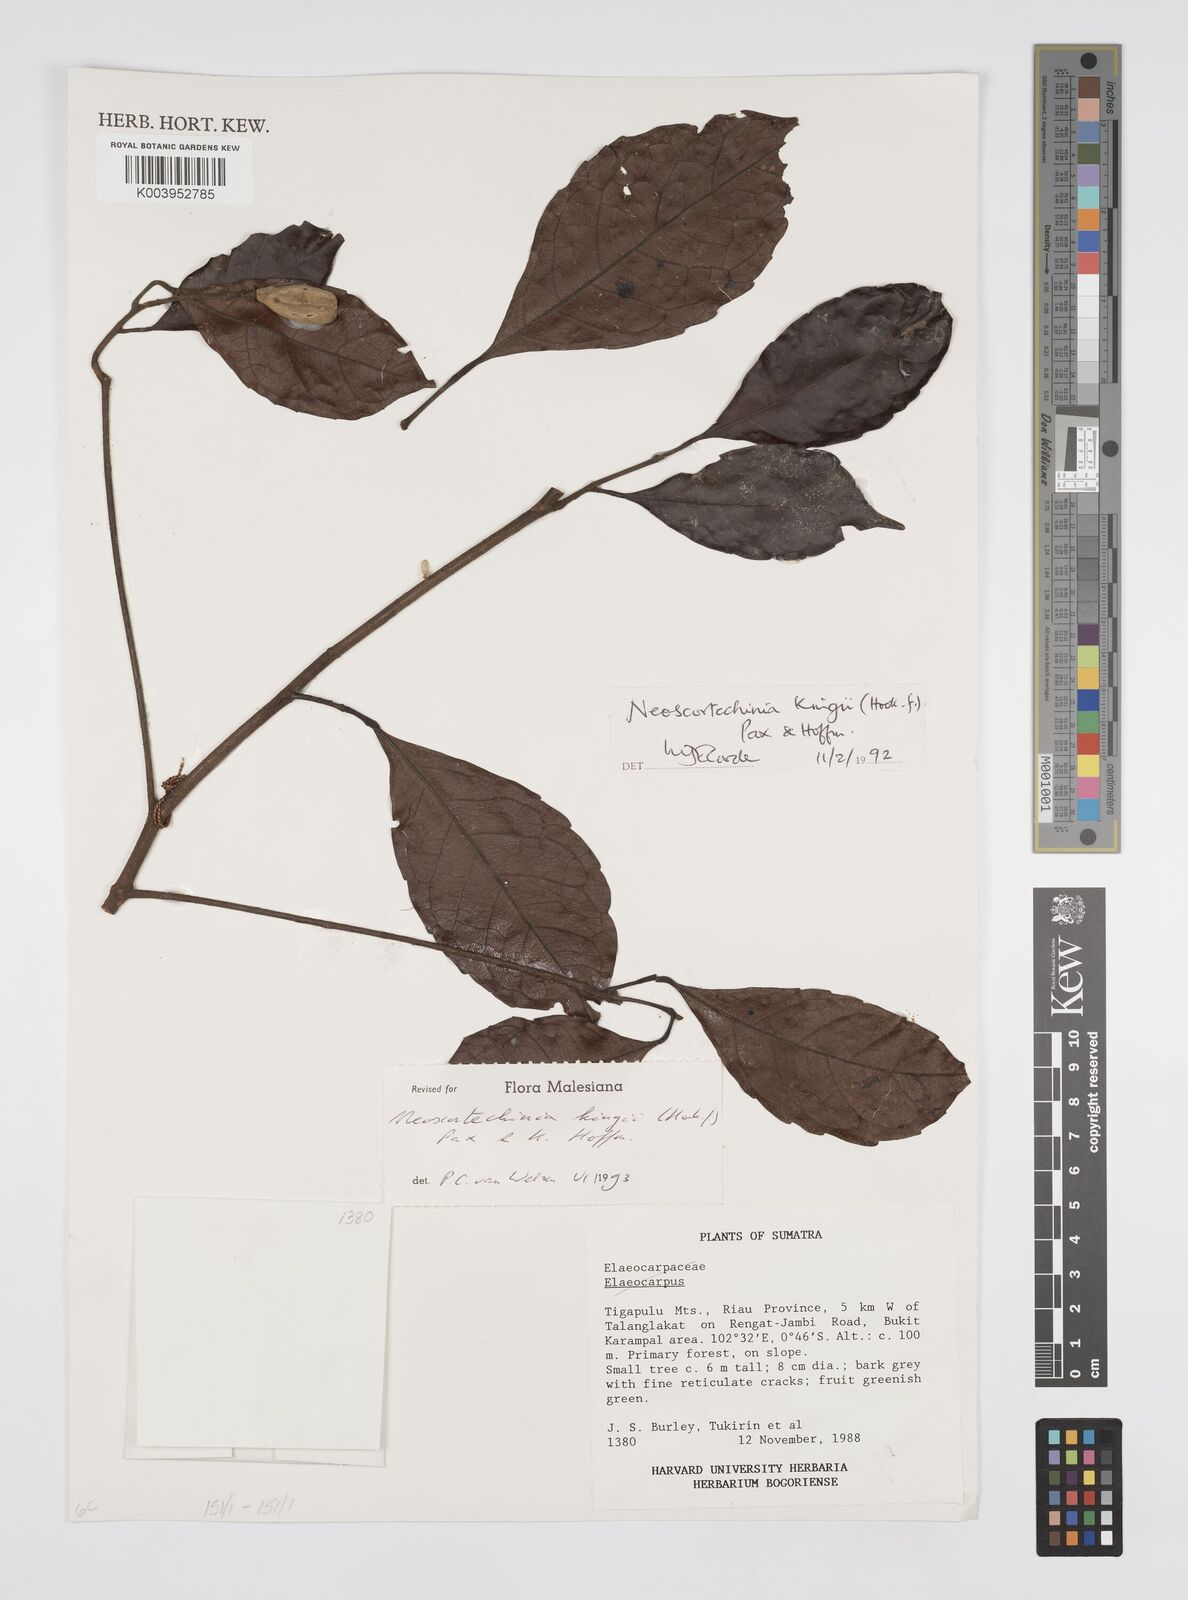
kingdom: Plantae
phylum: Tracheophyta
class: Magnoliopsida
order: Malpighiales
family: Euphorbiaceae
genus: Neoscortechinia
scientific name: Neoscortechinia kingii
